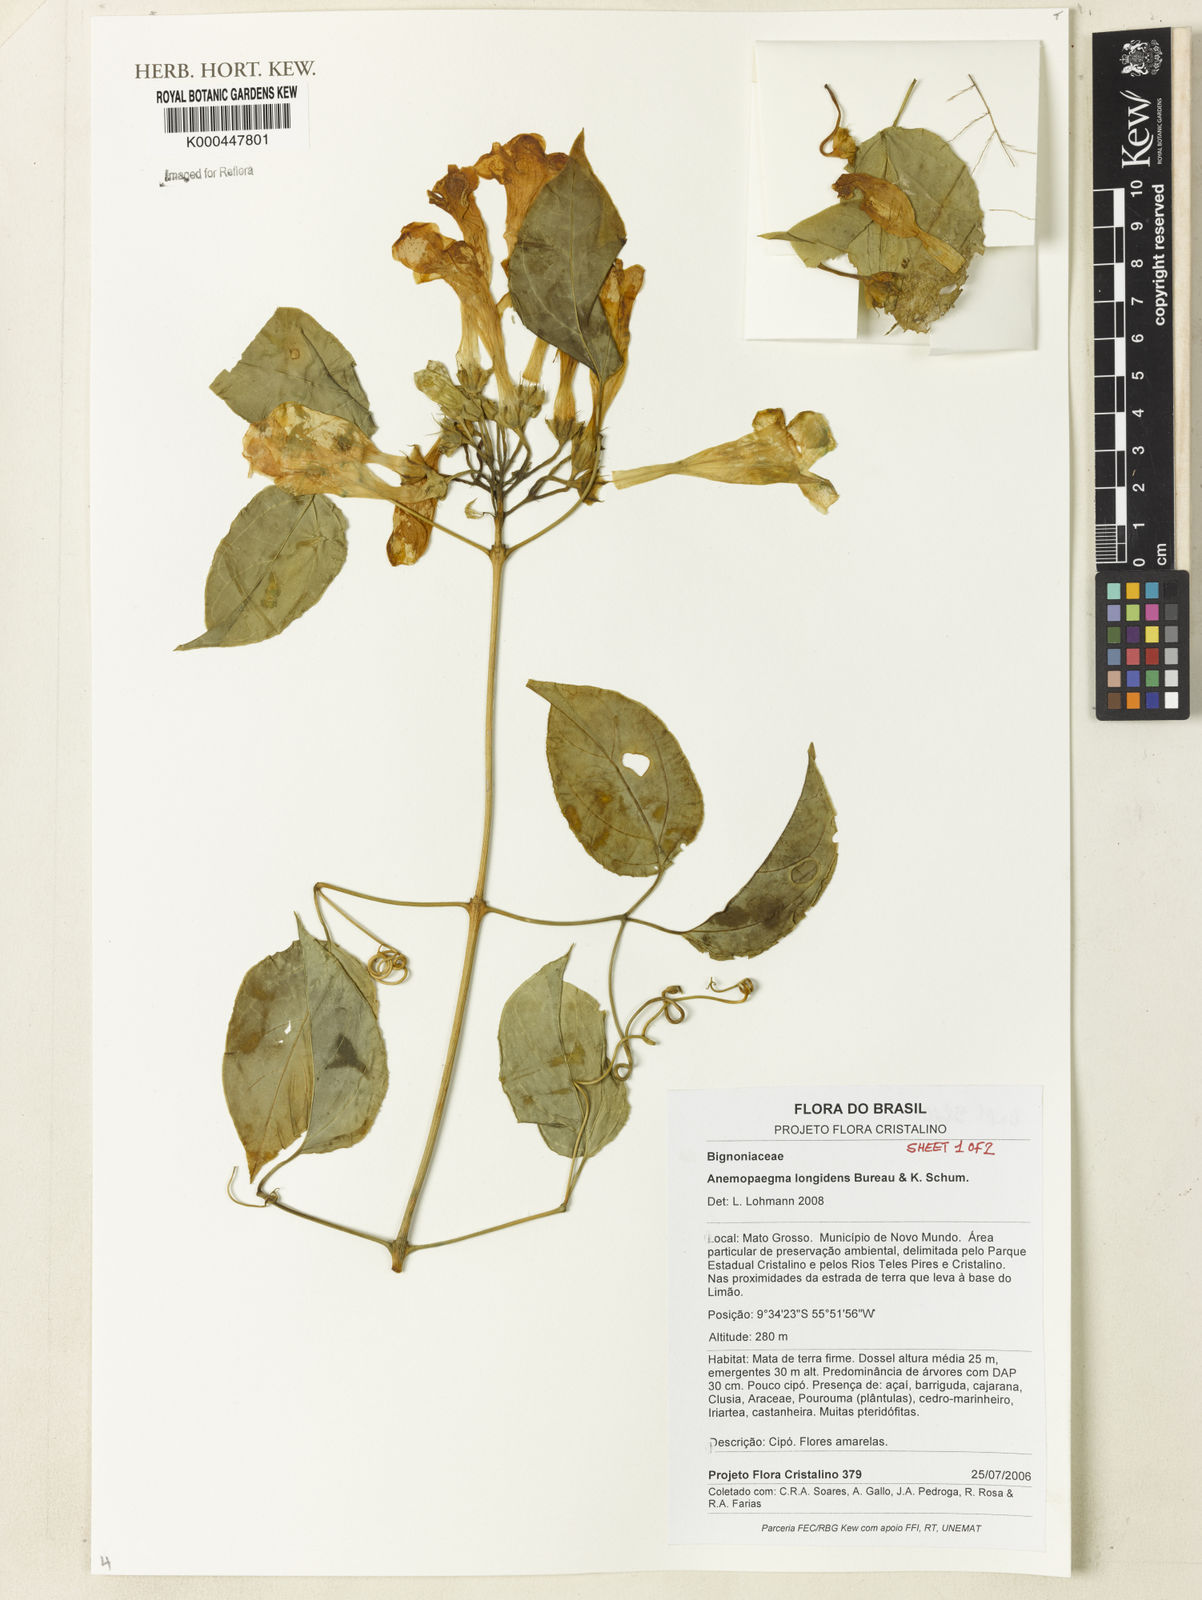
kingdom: Plantae
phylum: Tracheophyta
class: Magnoliopsida
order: Lamiales
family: Bignoniaceae
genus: Anemopaegma
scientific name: Anemopaegma
